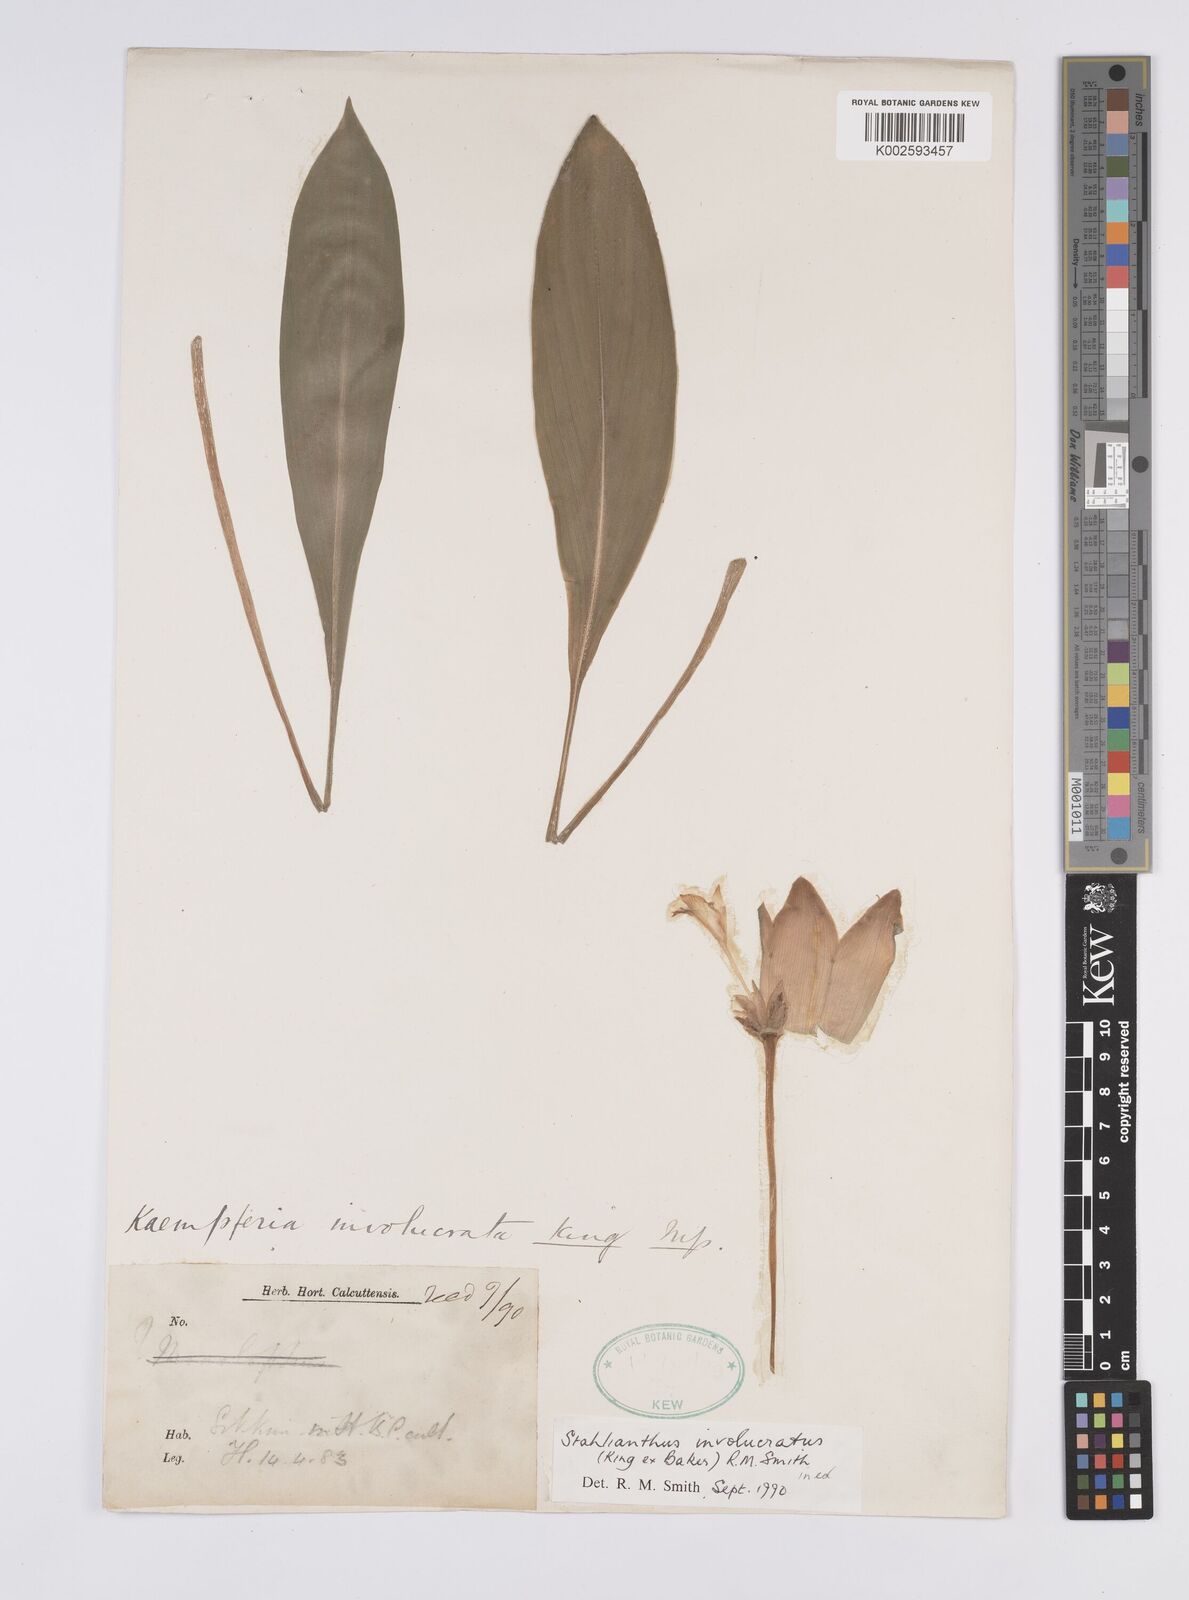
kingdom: Plantae
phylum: Tracheophyta
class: Liliopsida
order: Zingiberales
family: Zingiberaceae
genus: Curcuma
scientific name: Curcuma involucrata
